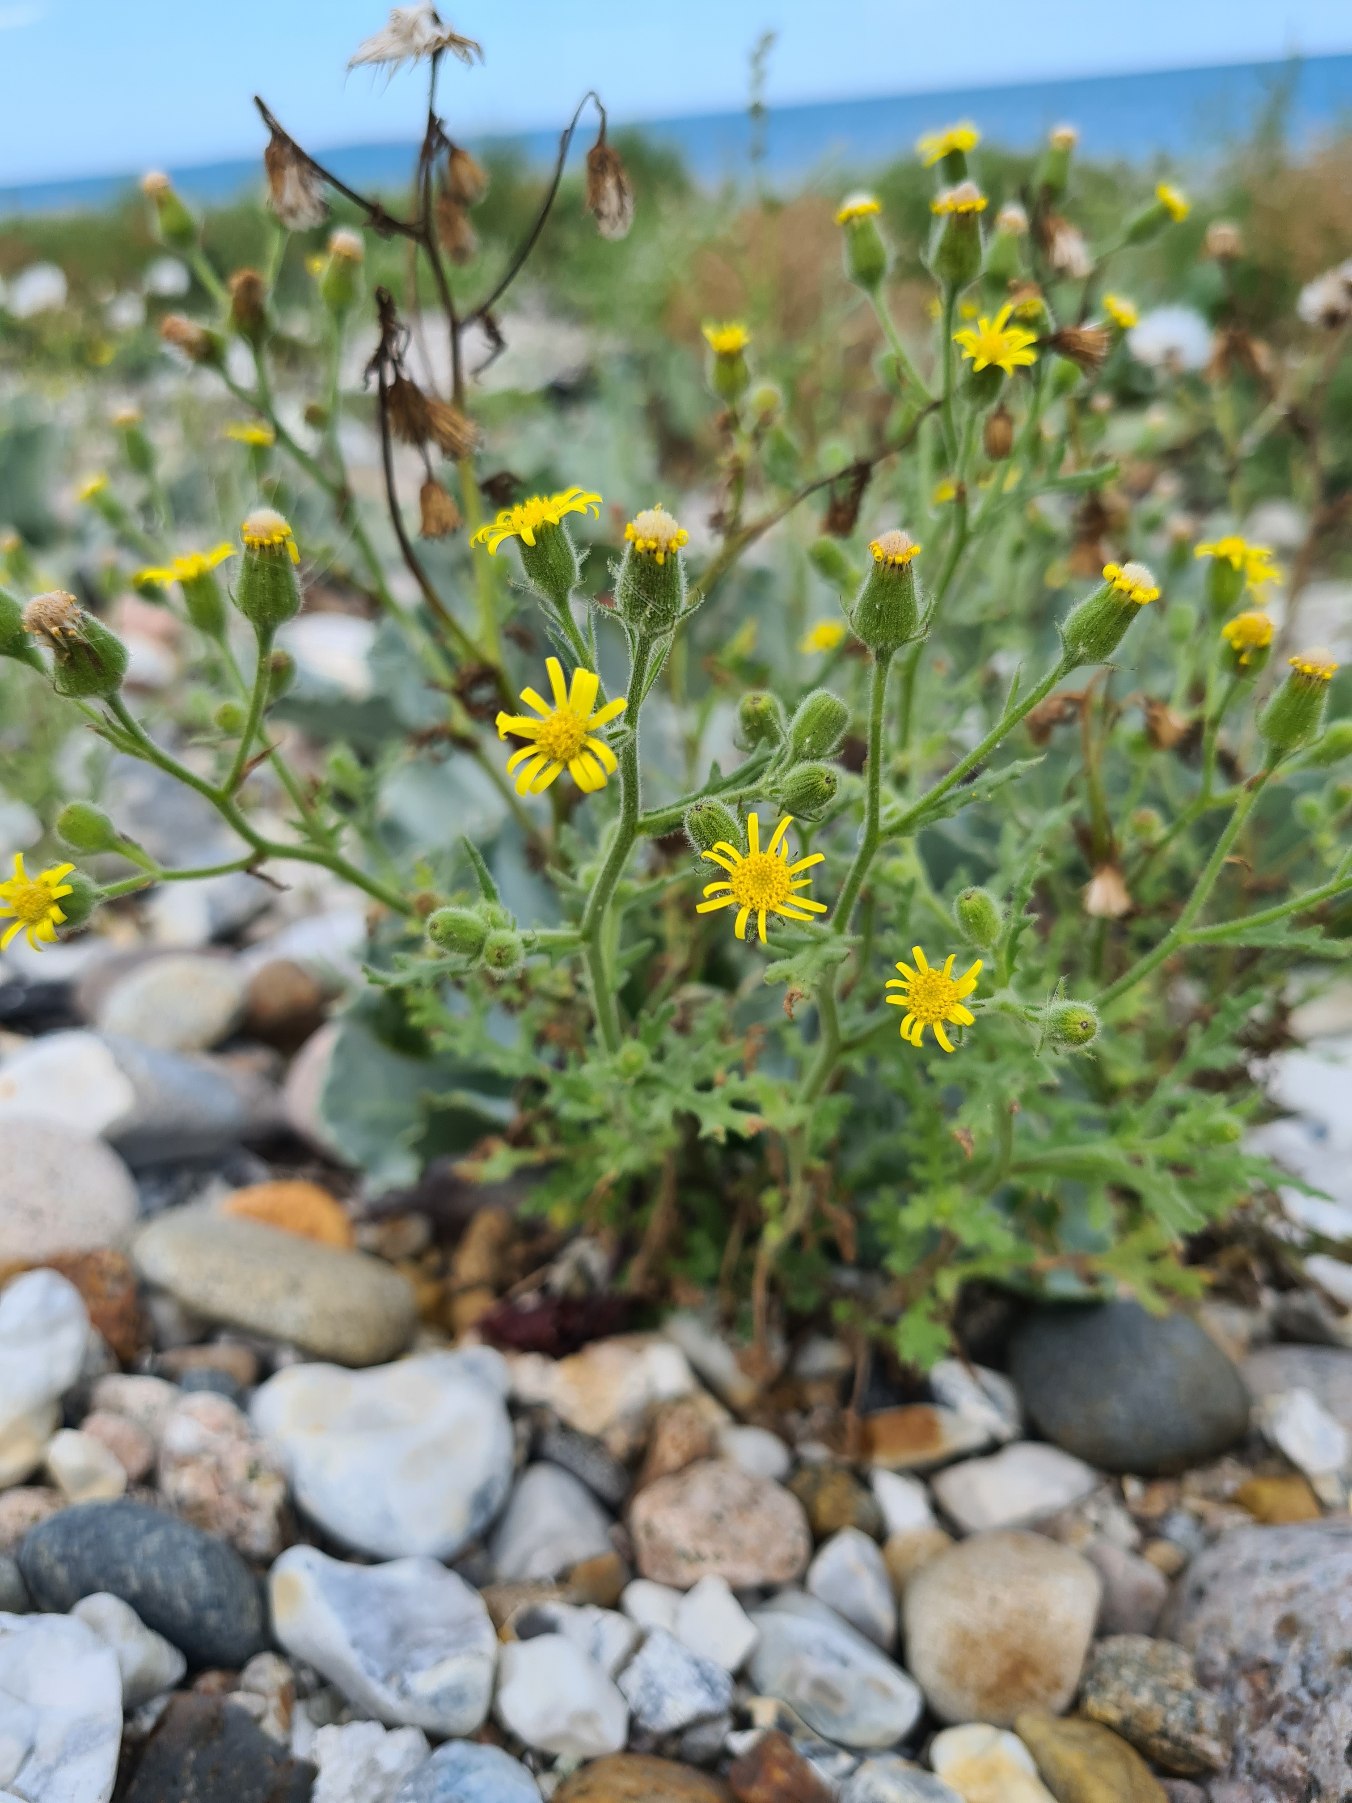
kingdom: Plantae
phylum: Tracheophyta
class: Magnoliopsida
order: Asterales
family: Asteraceae
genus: Senecio
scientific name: Senecio viscosus
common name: Klæbrig brandbæger
